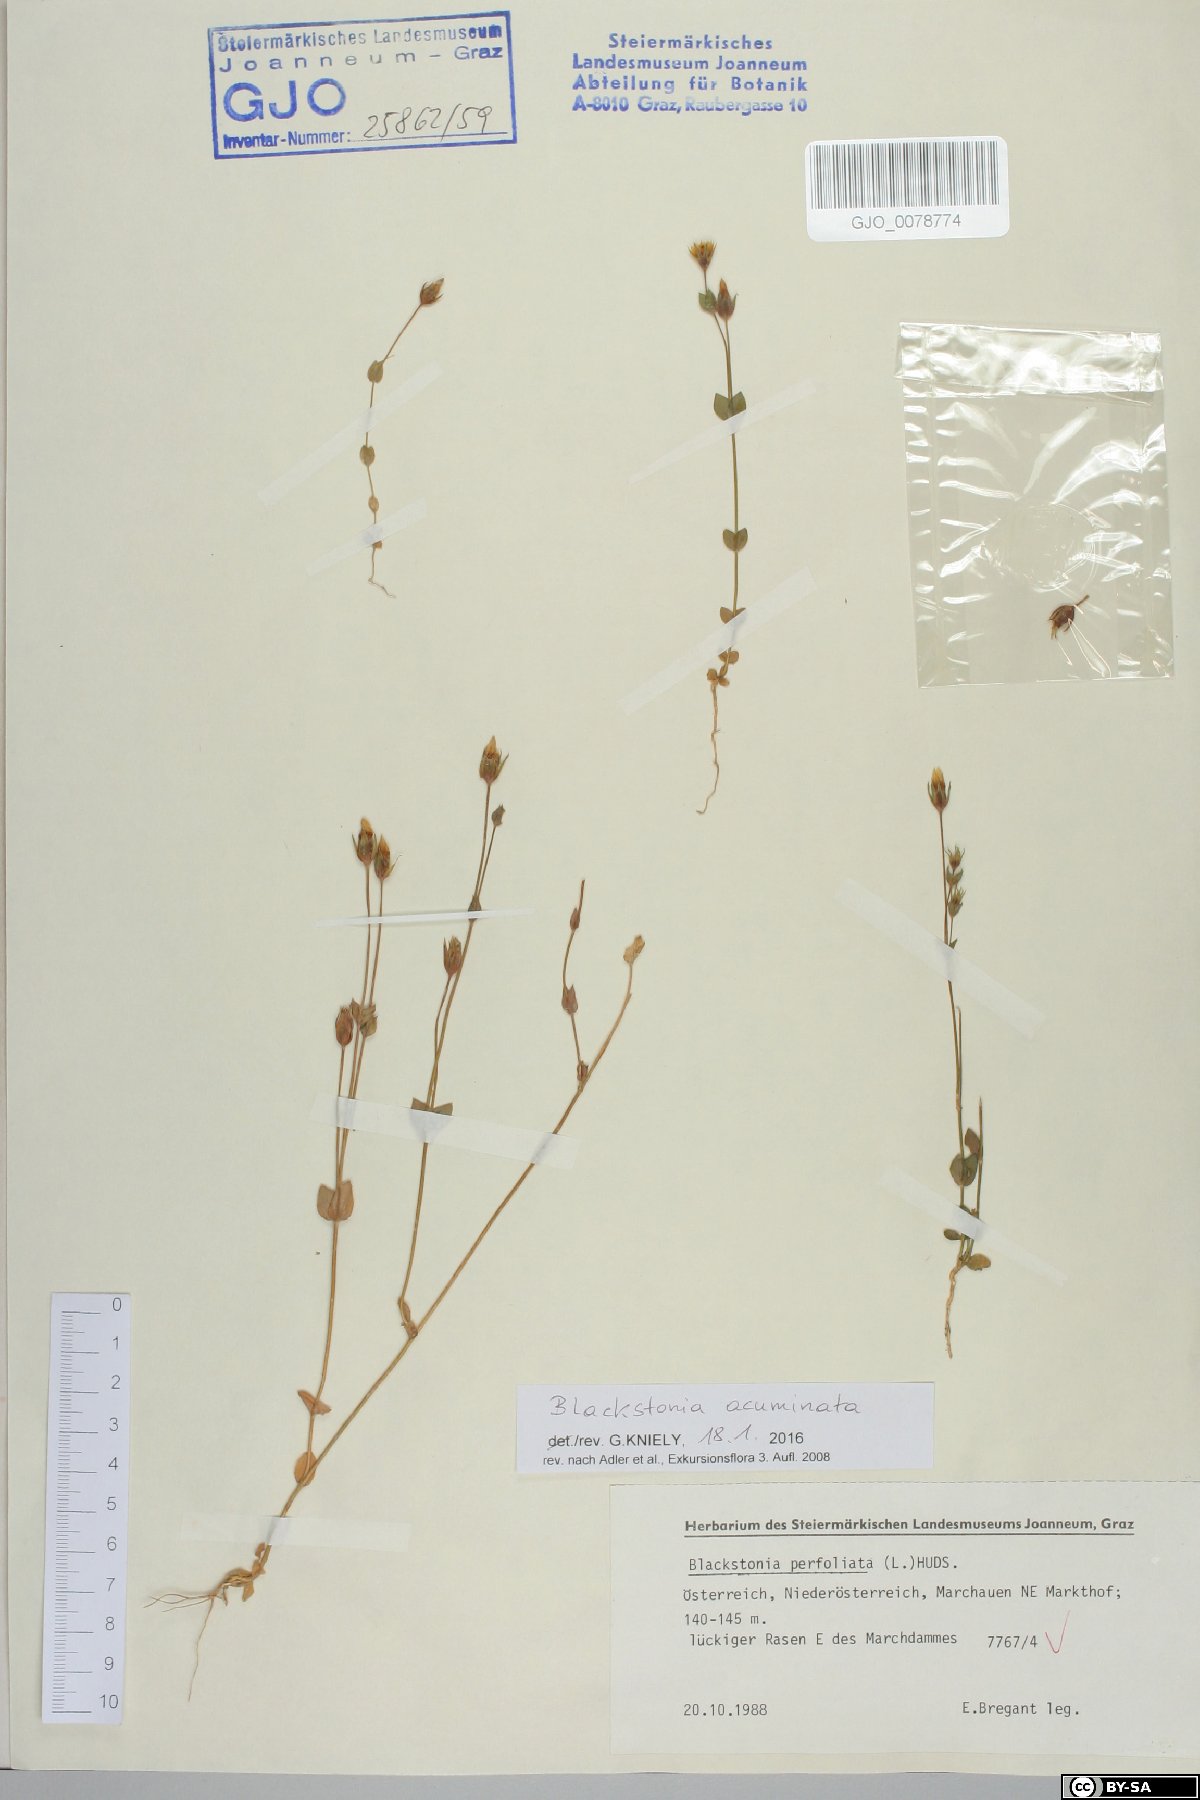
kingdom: Plantae
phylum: Tracheophyta
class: Magnoliopsida
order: Gentianales
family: Gentianaceae
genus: Blackstonia
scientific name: Blackstonia acuminata
